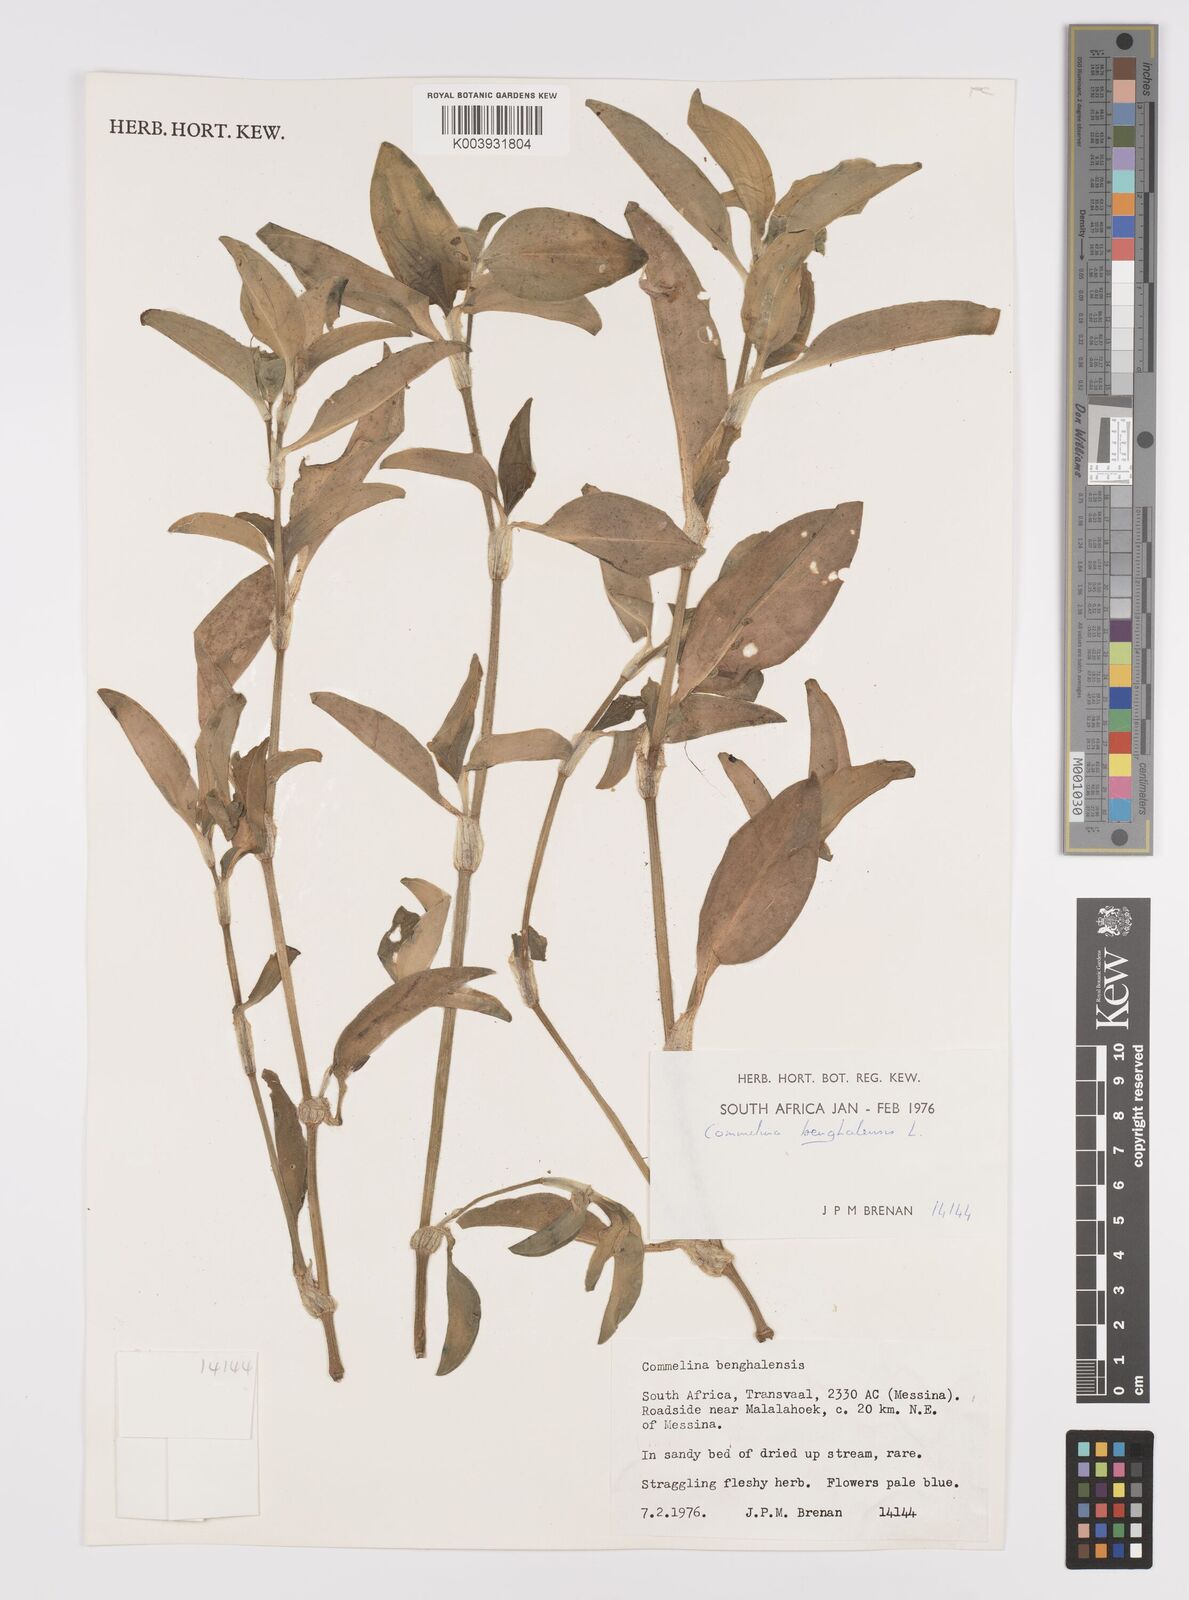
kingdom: Plantae
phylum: Tracheophyta
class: Liliopsida
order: Commelinales
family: Commelinaceae
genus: Commelina
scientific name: Commelina benghalensis
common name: Jio
